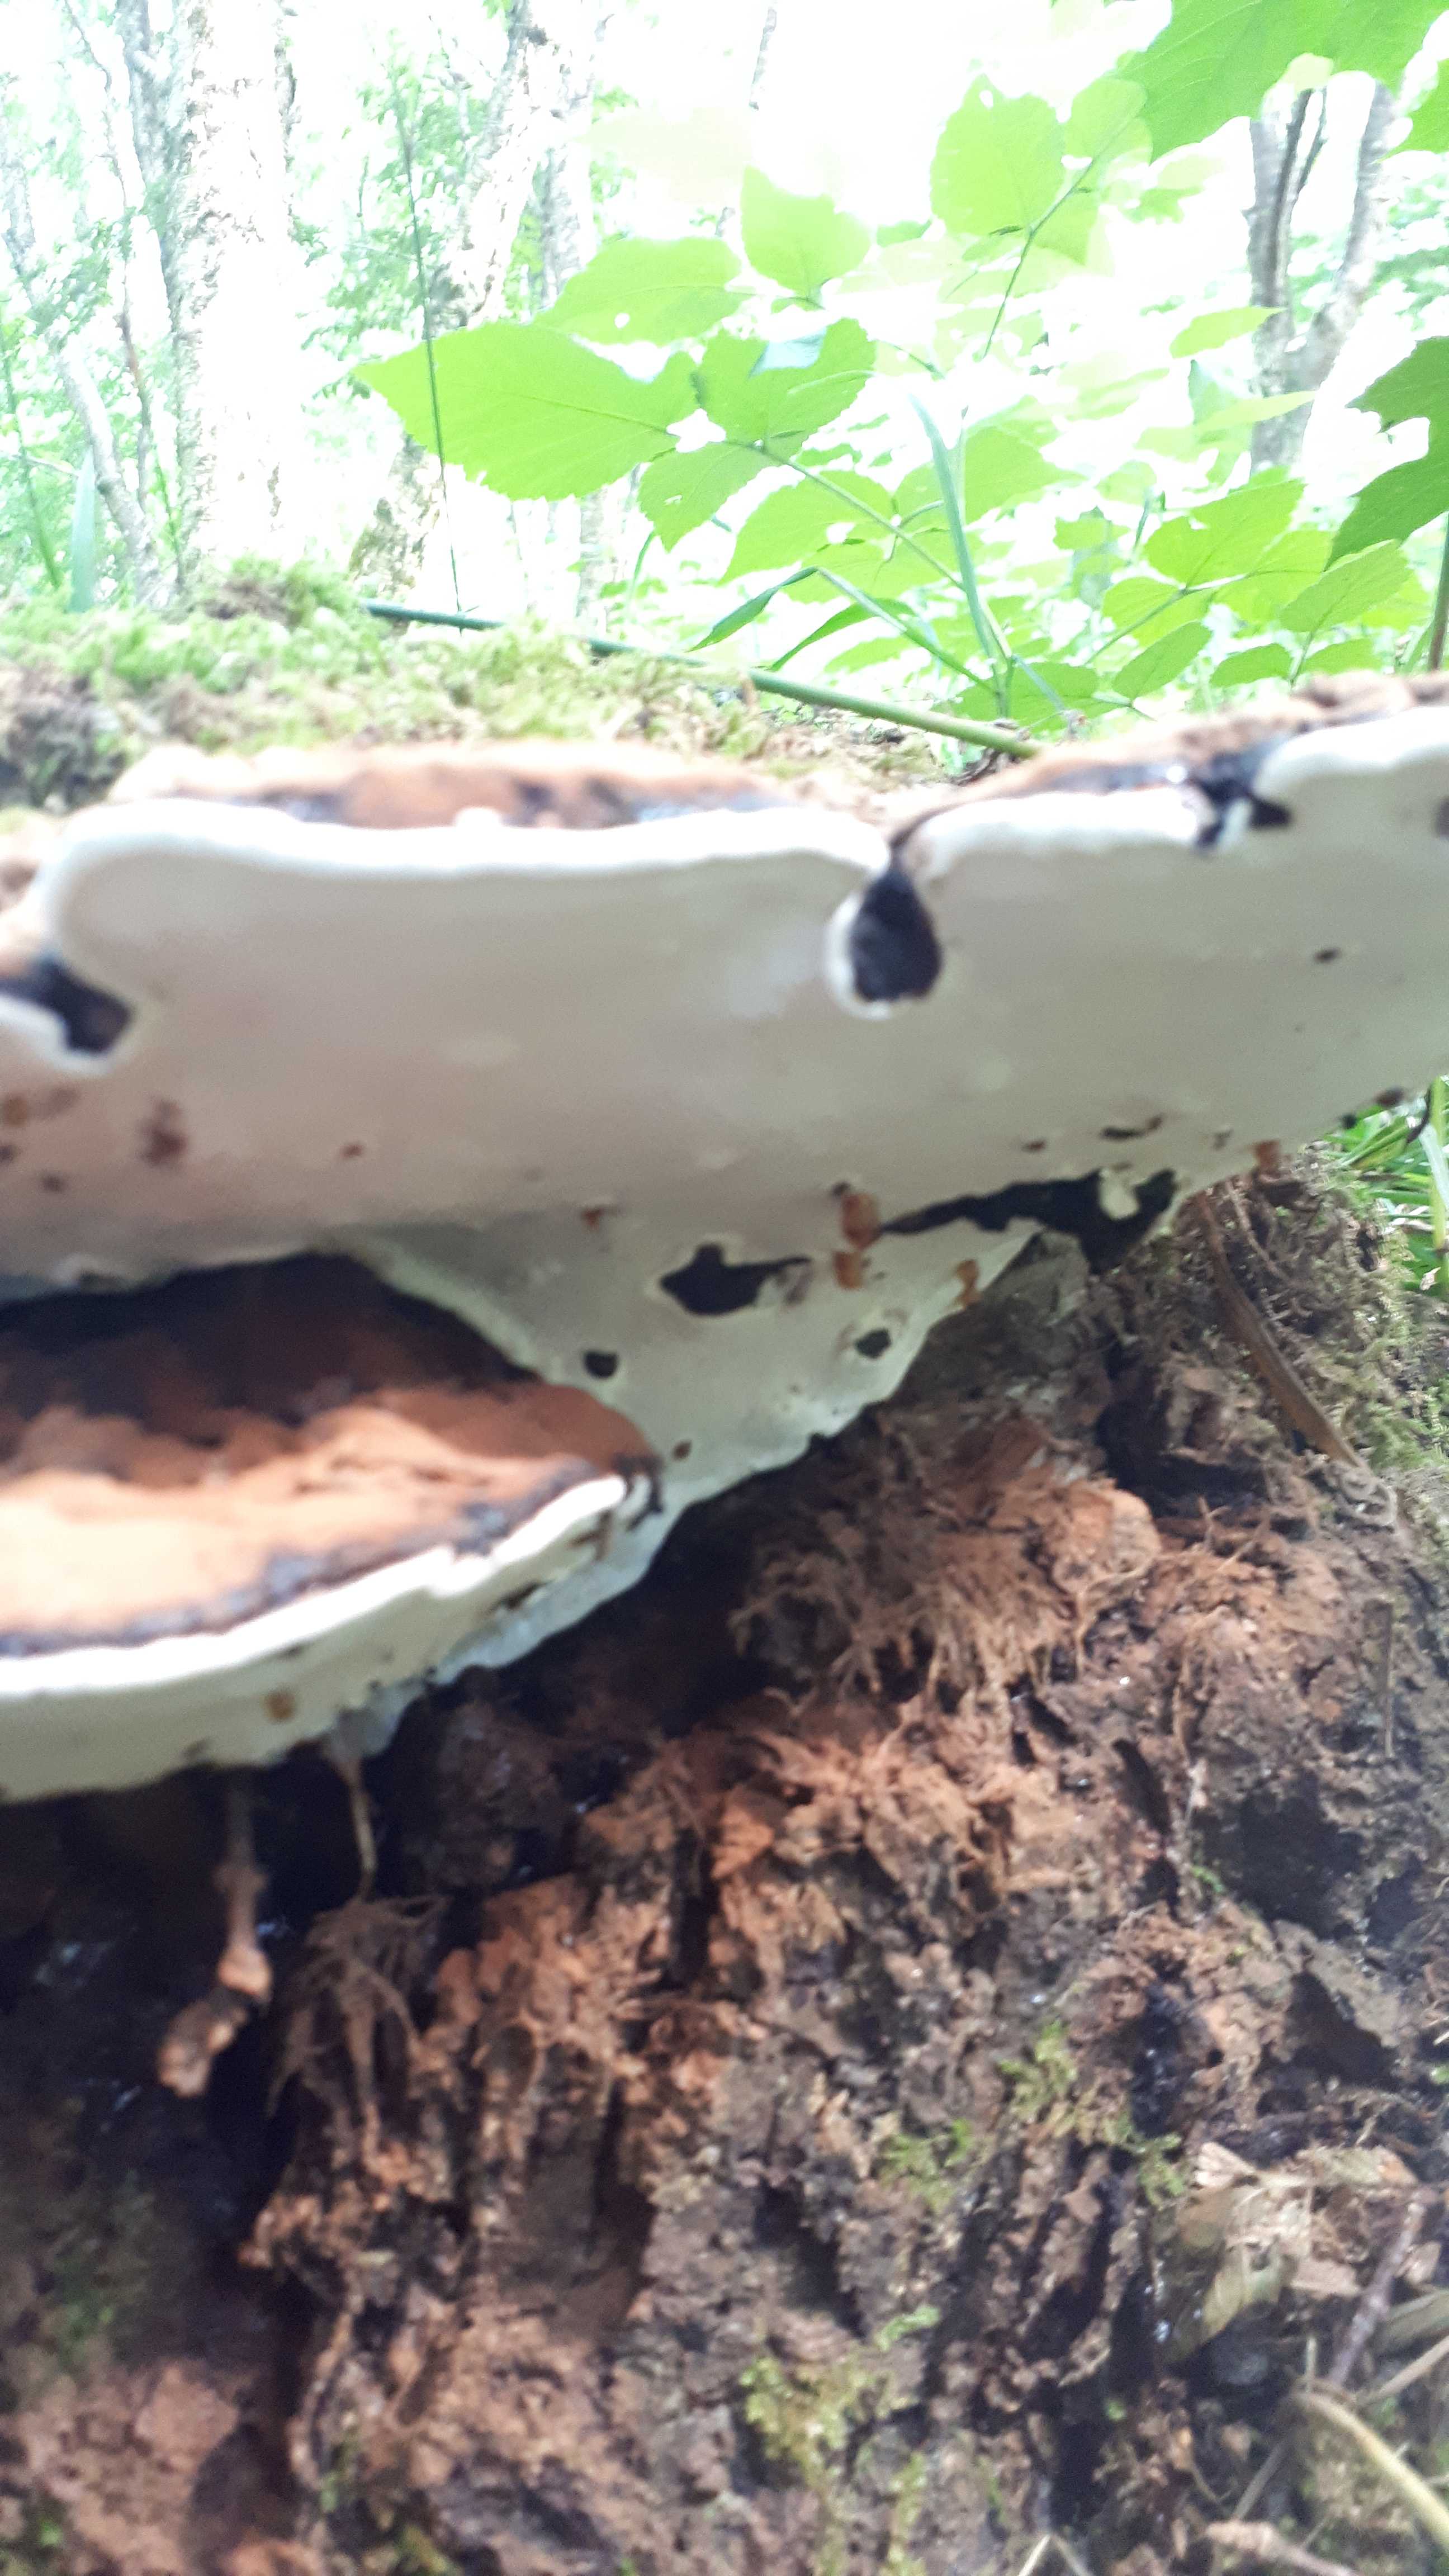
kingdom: Fungi
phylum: Basidiomycota
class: Agaricomycetes
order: Polyporales
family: Polyporaceae
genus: Ganoderma
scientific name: Ganoderma applanatum
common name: flad lakporesvamp
